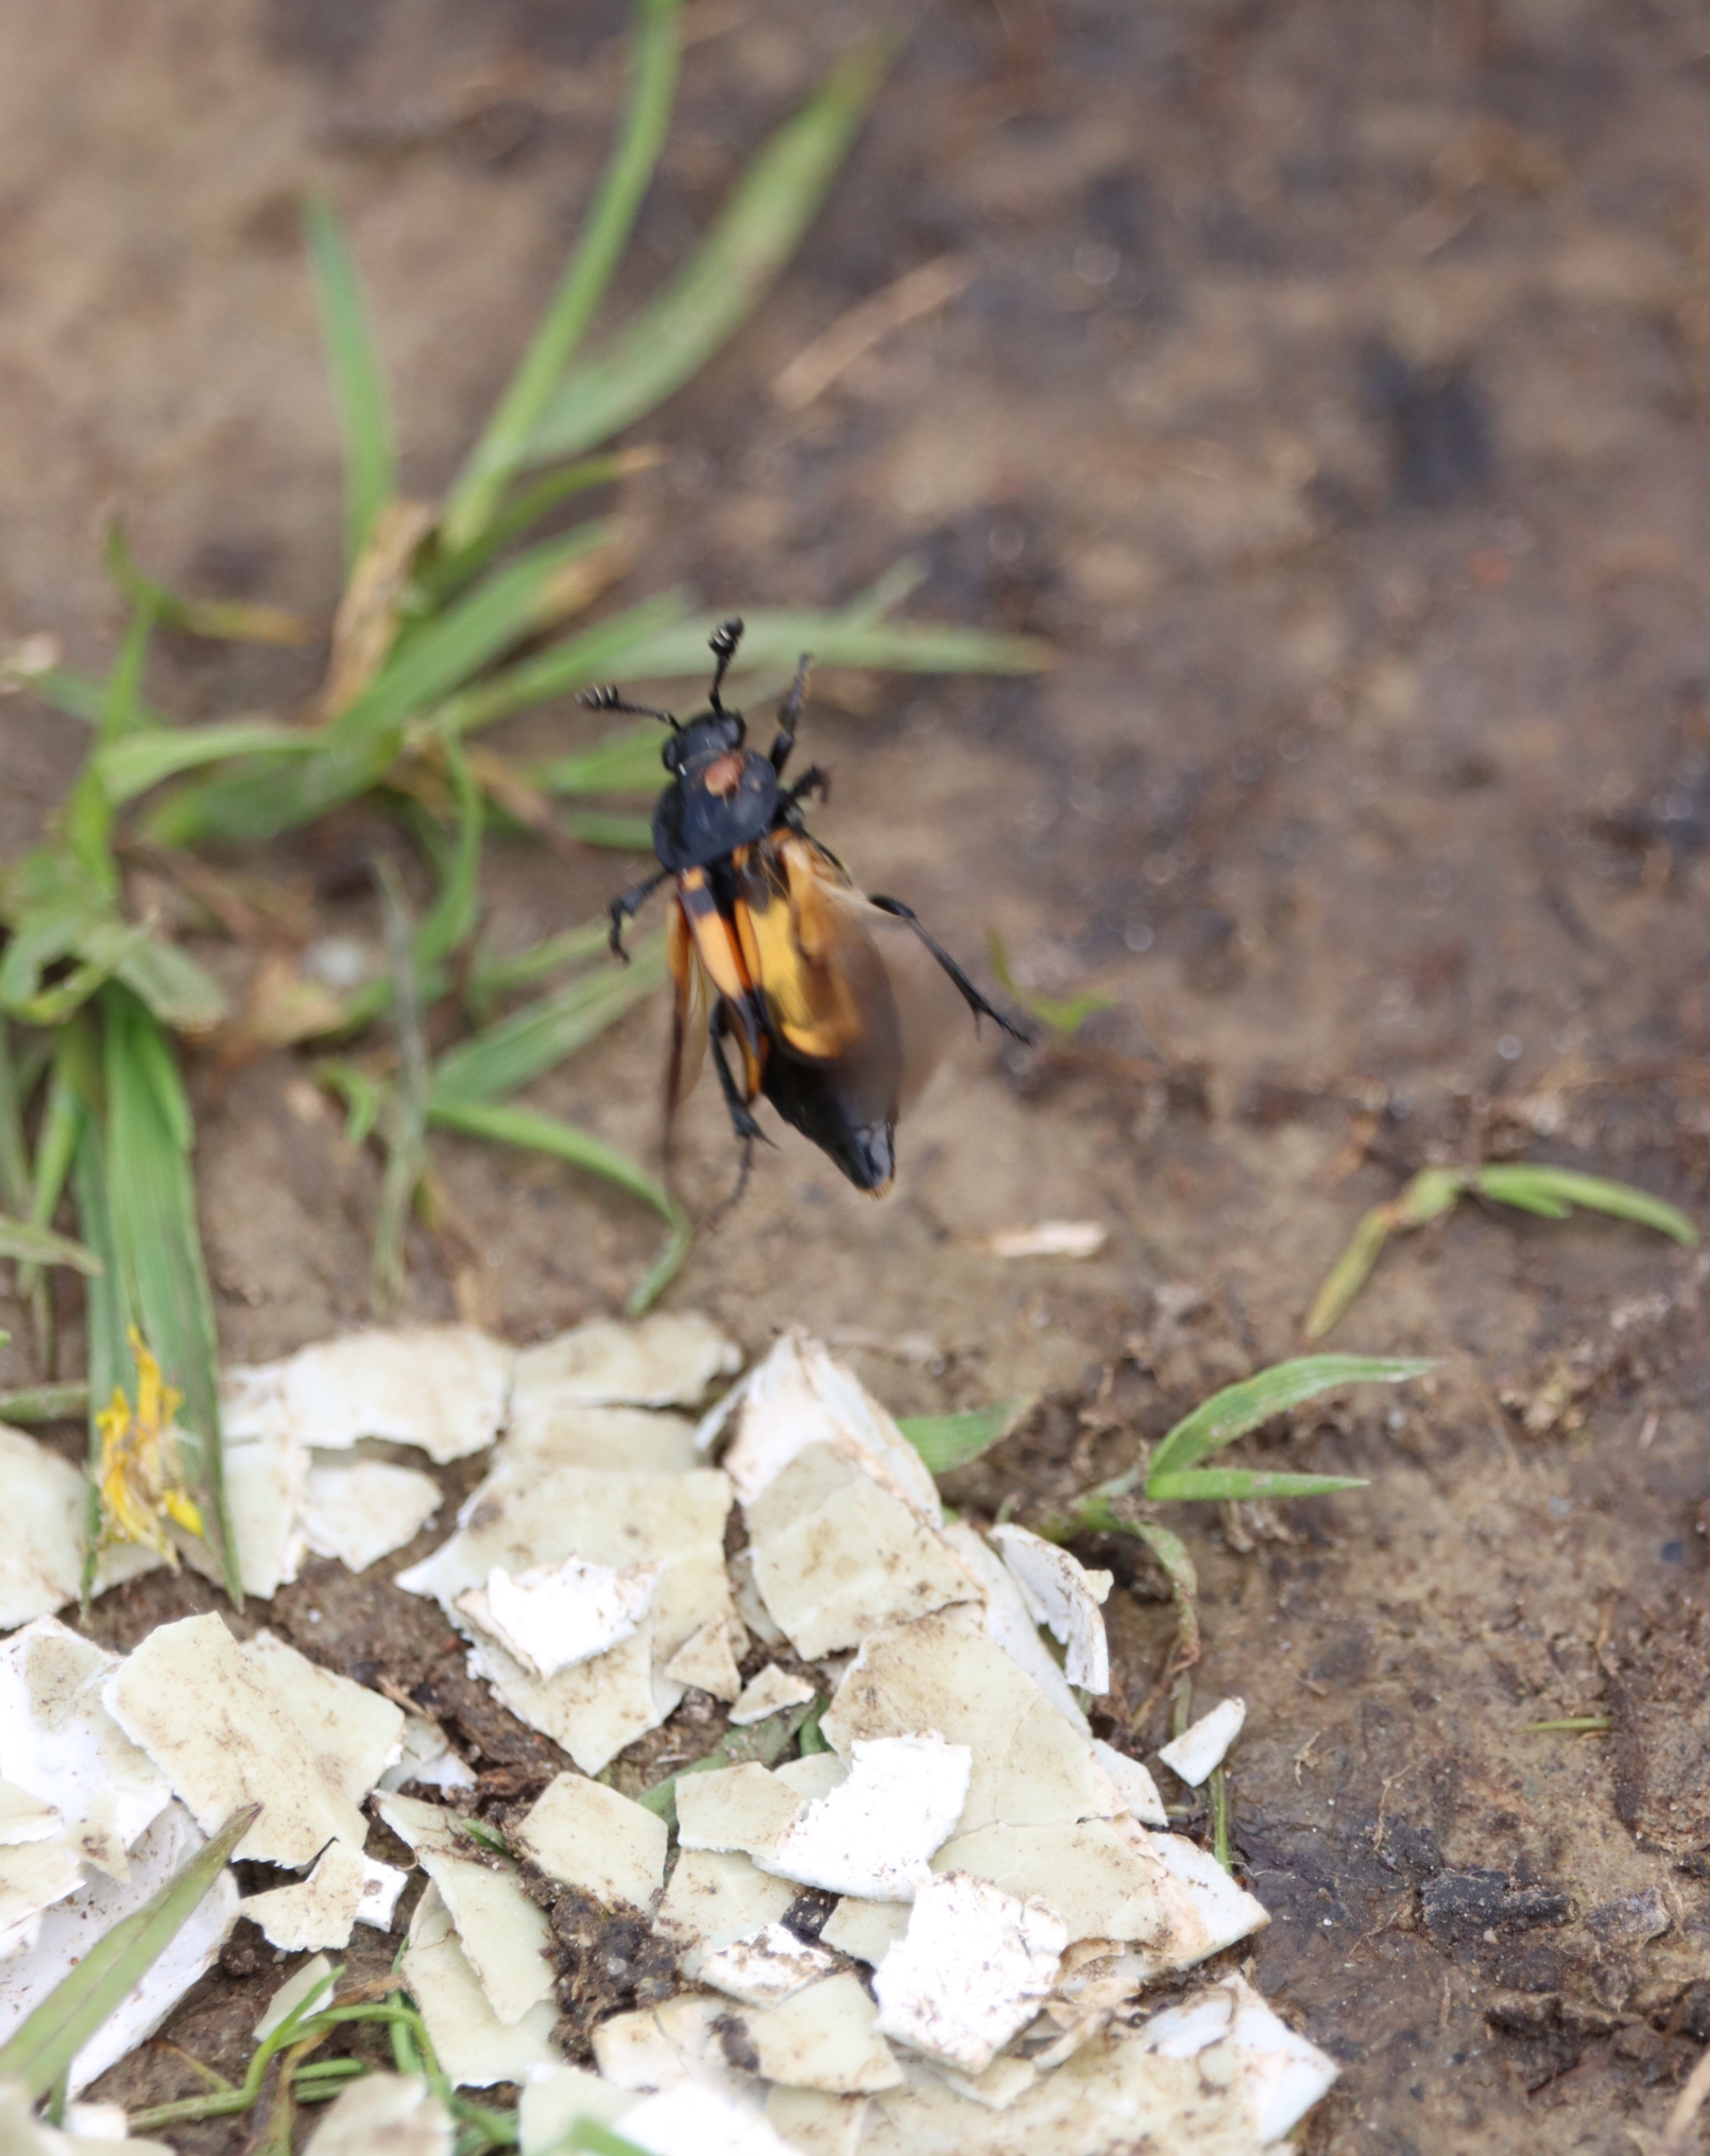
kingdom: Animalia
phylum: Arthropoda
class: Insecta
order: Coleoptera
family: Staphylinidae
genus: Nicrophorus
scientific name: Nicrophorus vespilloides
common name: Sortkøllet ådselgraver
